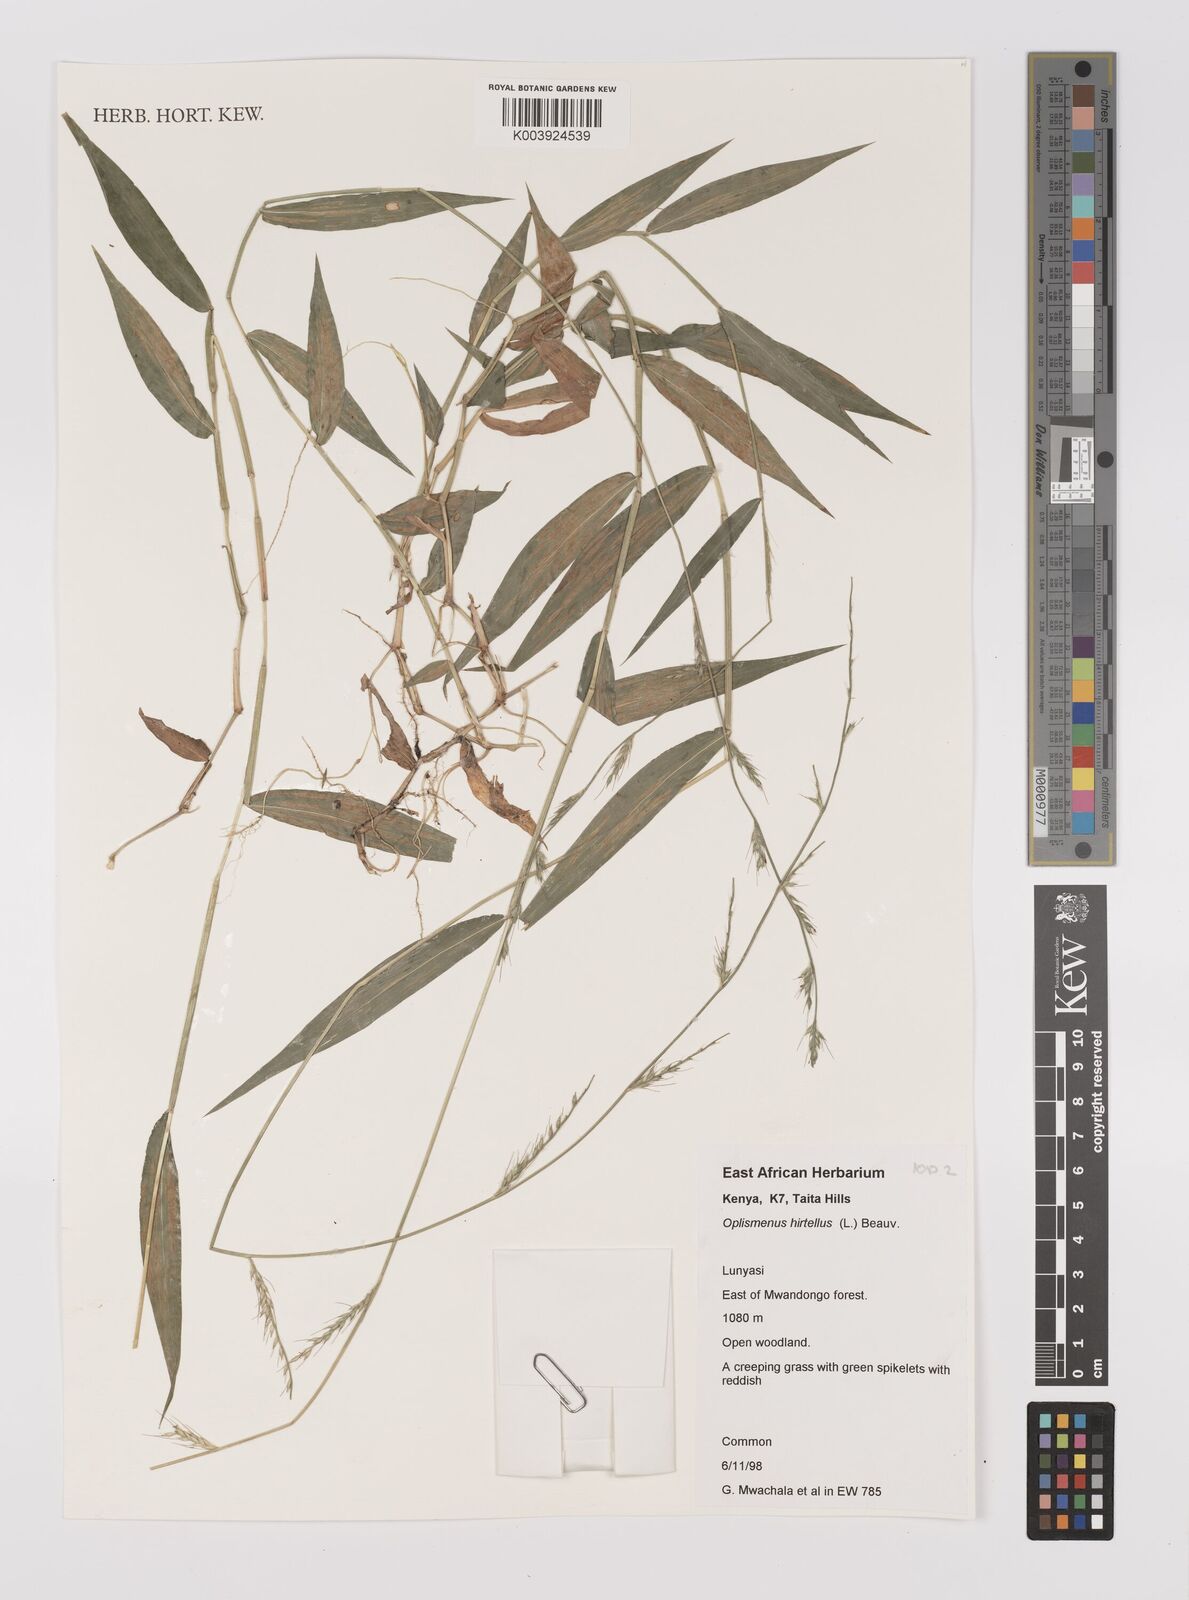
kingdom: Plantae
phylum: Tracheophyta
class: Liliopsida
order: Poales
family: Poaceae
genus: Oplismenus
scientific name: Oplismenus hirtellus
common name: Basketgrass
